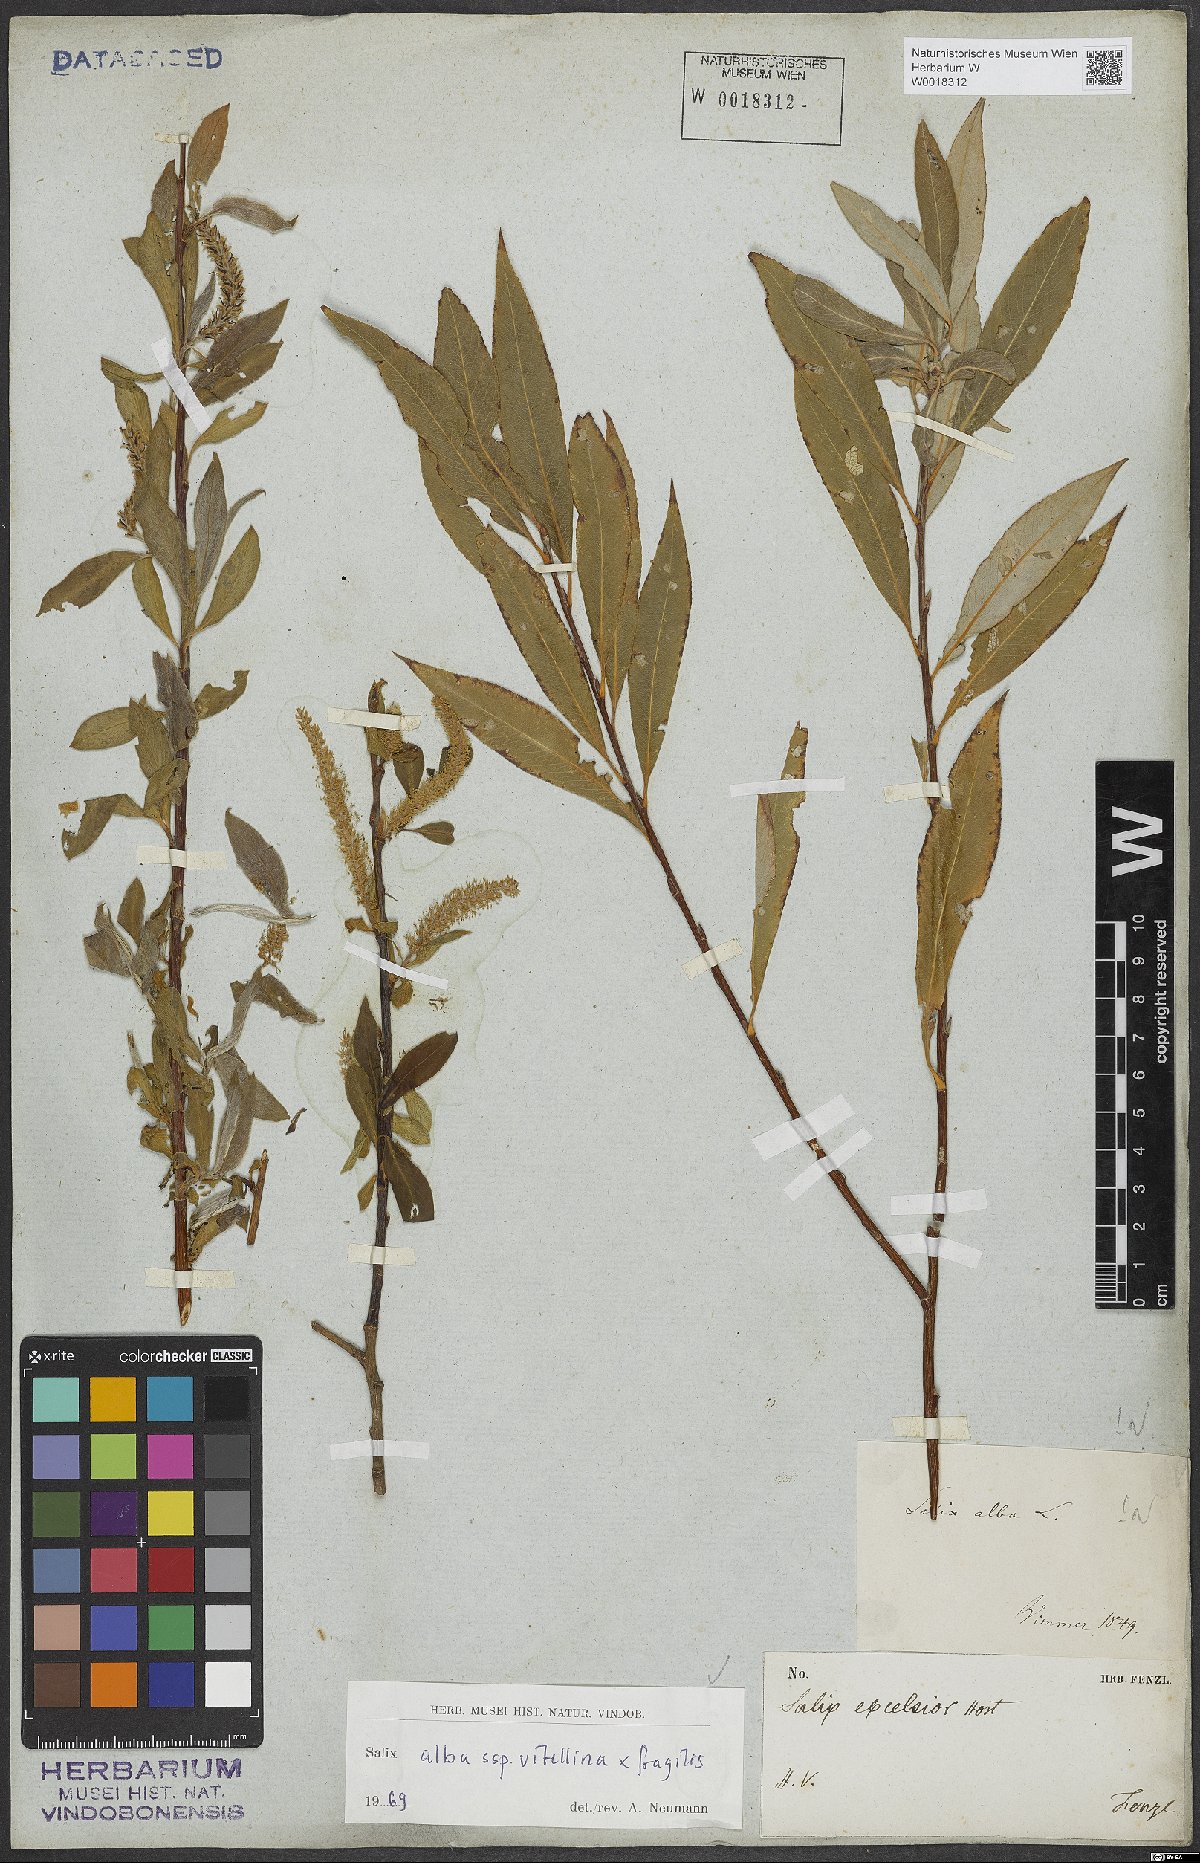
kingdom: Plantae
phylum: Tracheophyta
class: Magnoliopsida
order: Malpighiales
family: Salicaceae
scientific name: Salicaceae
